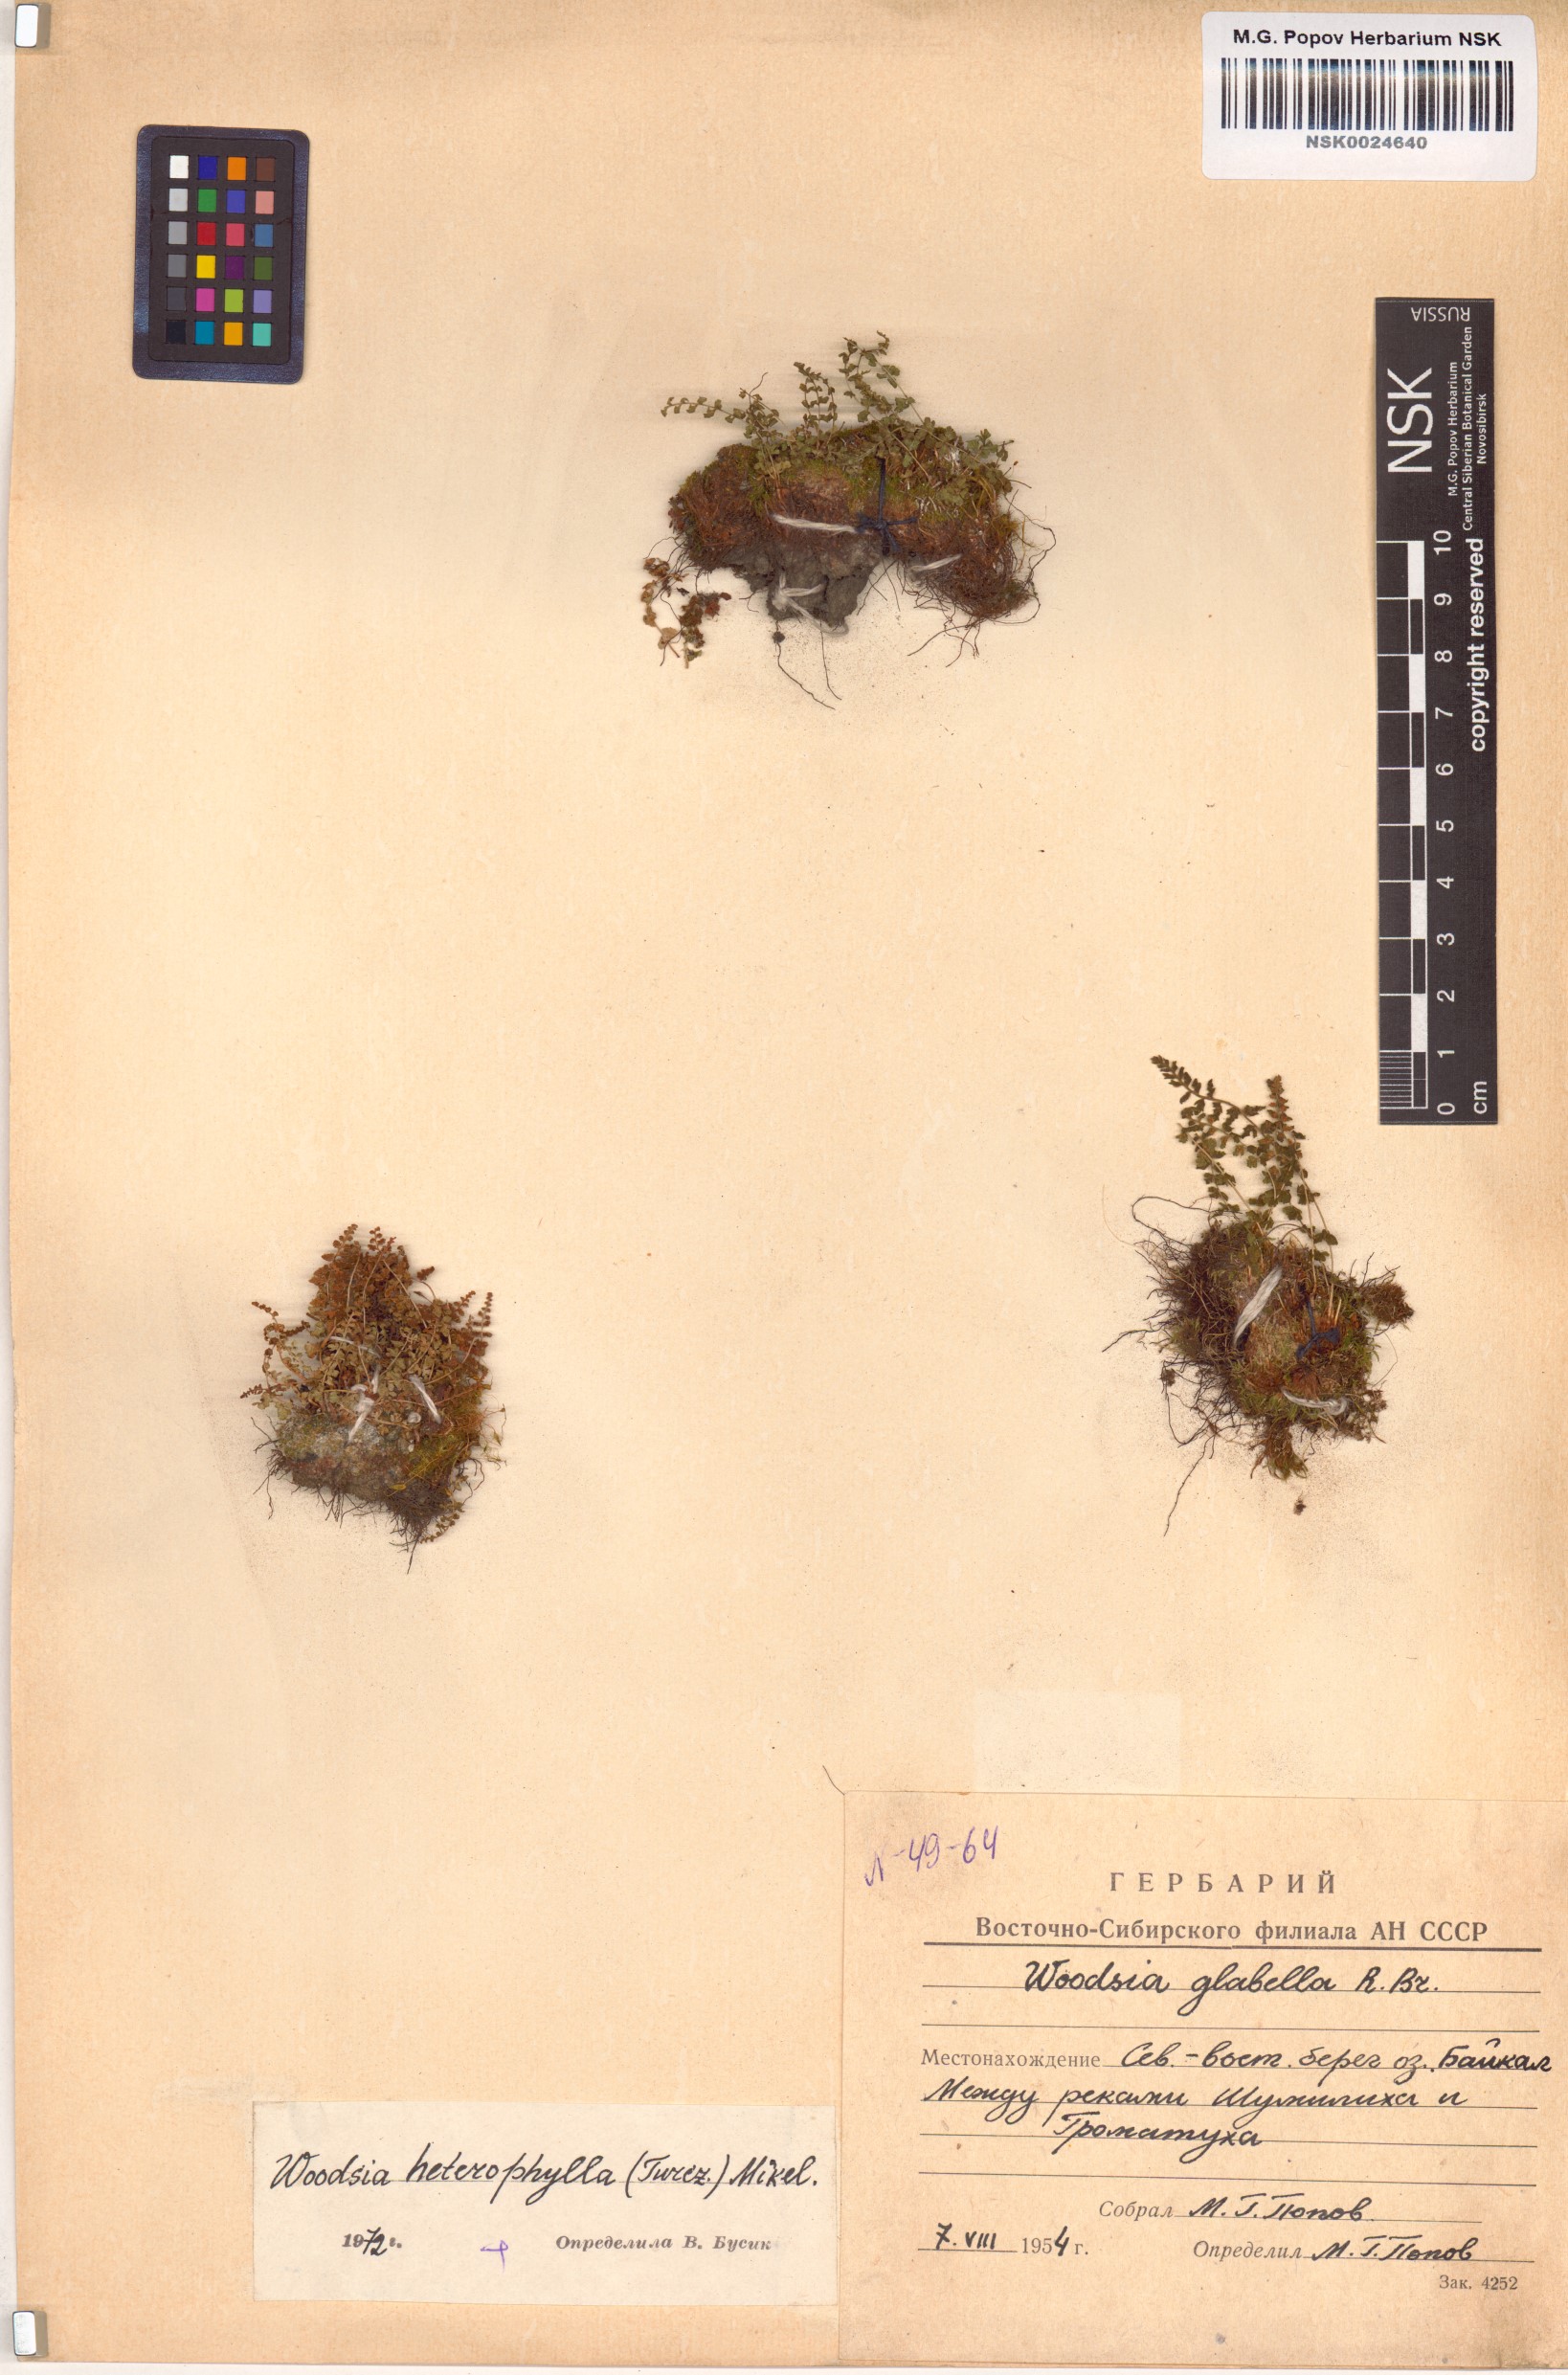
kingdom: Plantae
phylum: Tracheophyta
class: Polypodiopsida
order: Polypodiales
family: Woodsiaceae
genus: Woodsia
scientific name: Woodsia pulchella
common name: Graceful woodsia
